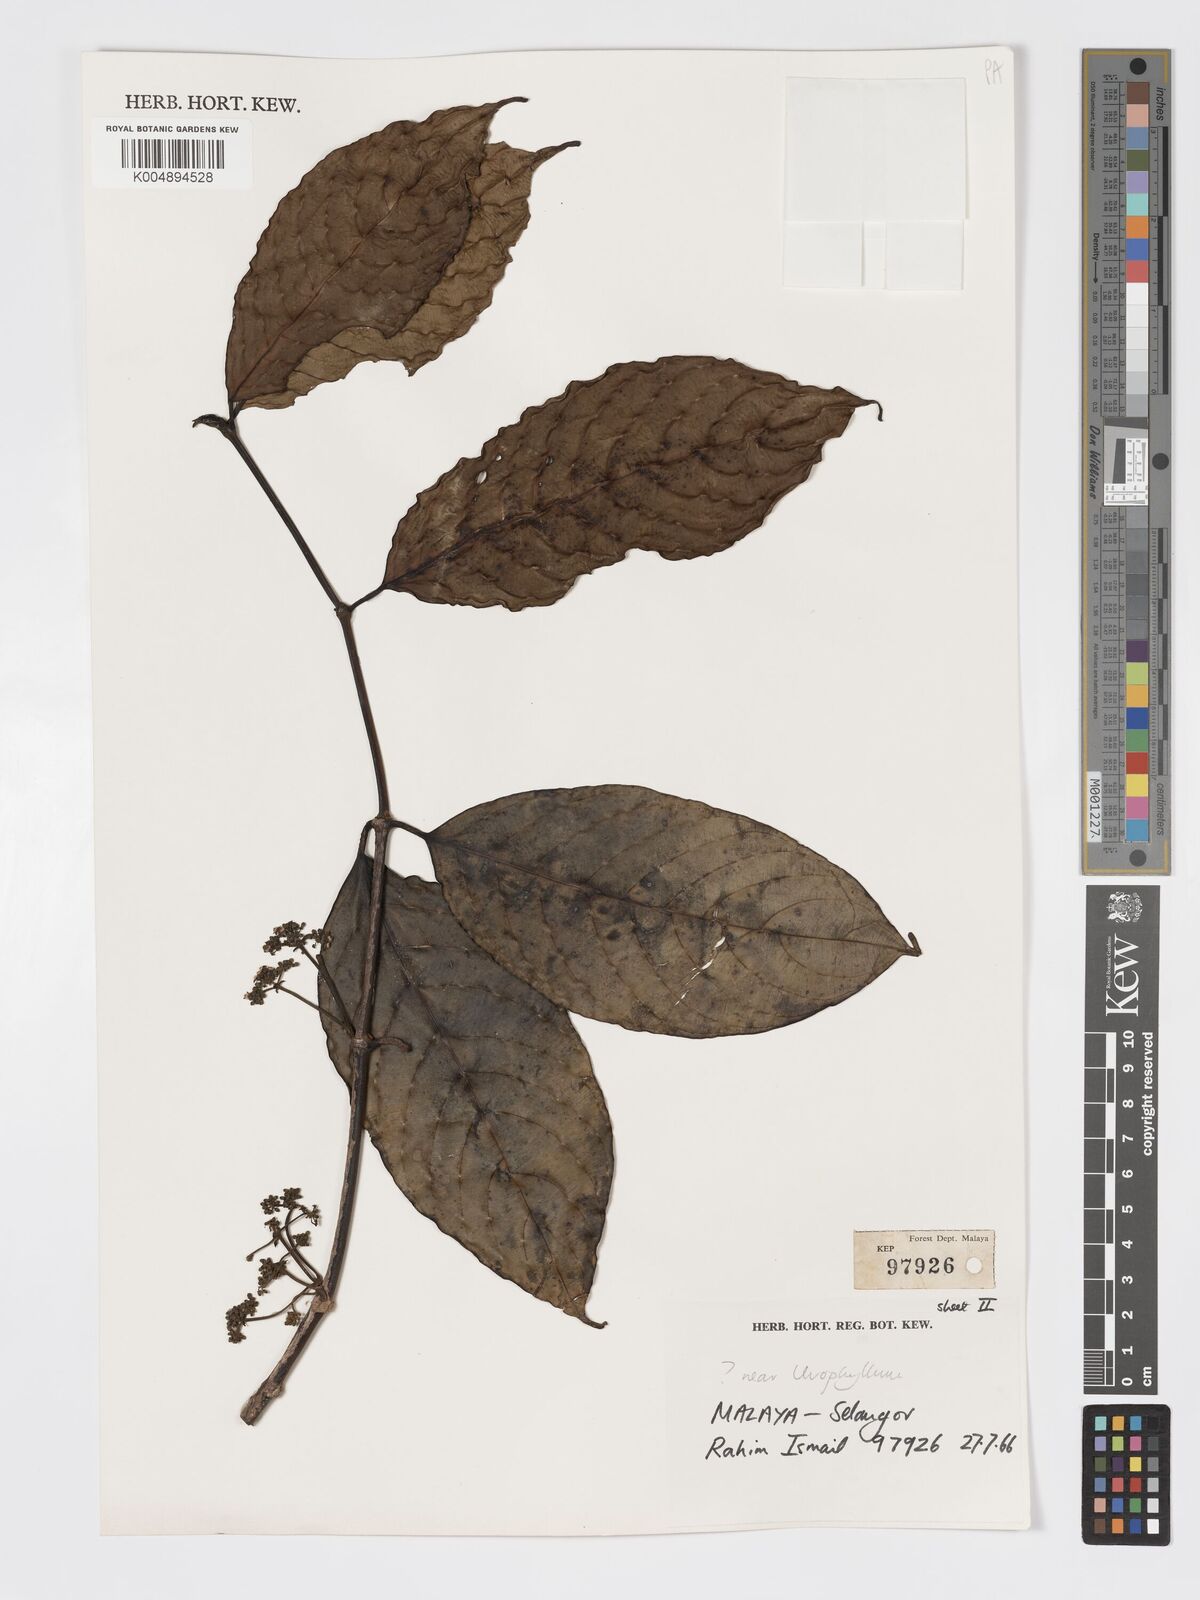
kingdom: Plantae
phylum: Tracheophyta
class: Magnoliopsida
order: Gentianales
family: Rubiaceae
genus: Urophyllum
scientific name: Urophyllum malayense
